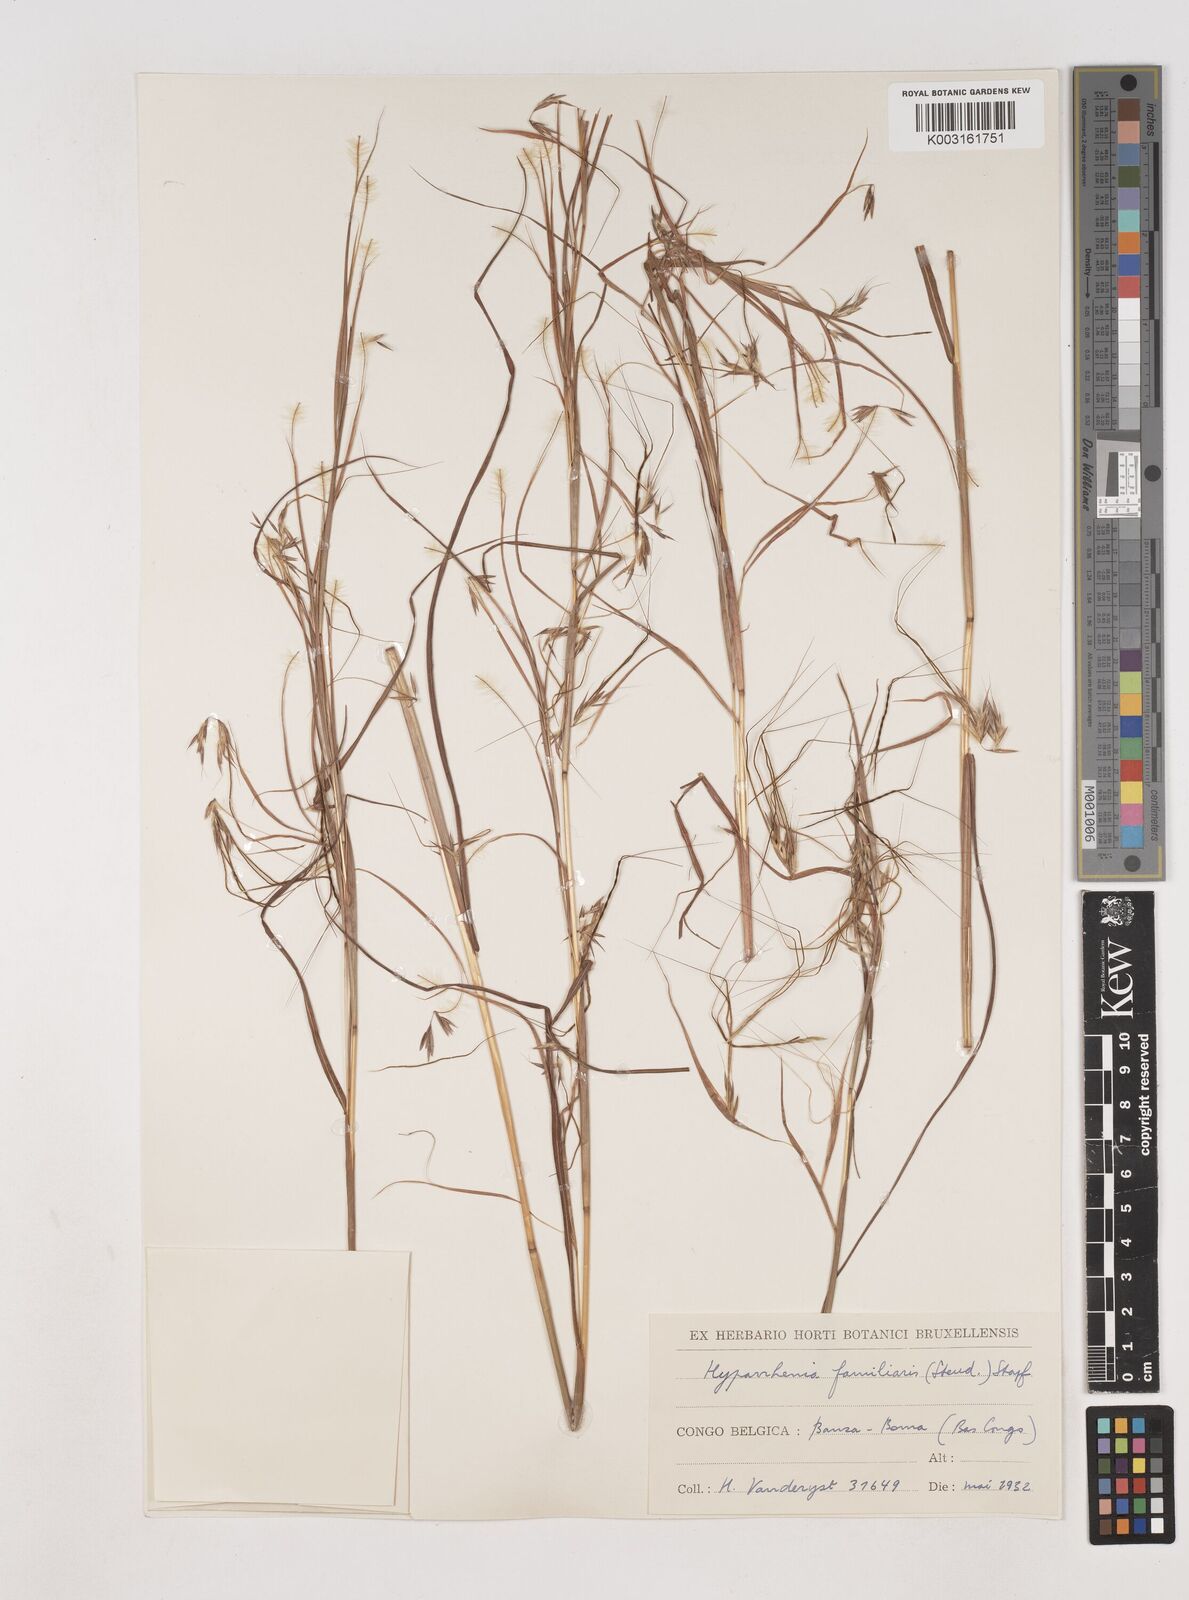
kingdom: Plantae
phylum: Tracheophyta
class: Liliopsida
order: Poales
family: Poaceae
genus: Hyparrhenia
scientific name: Hyparrhenia familiaris
